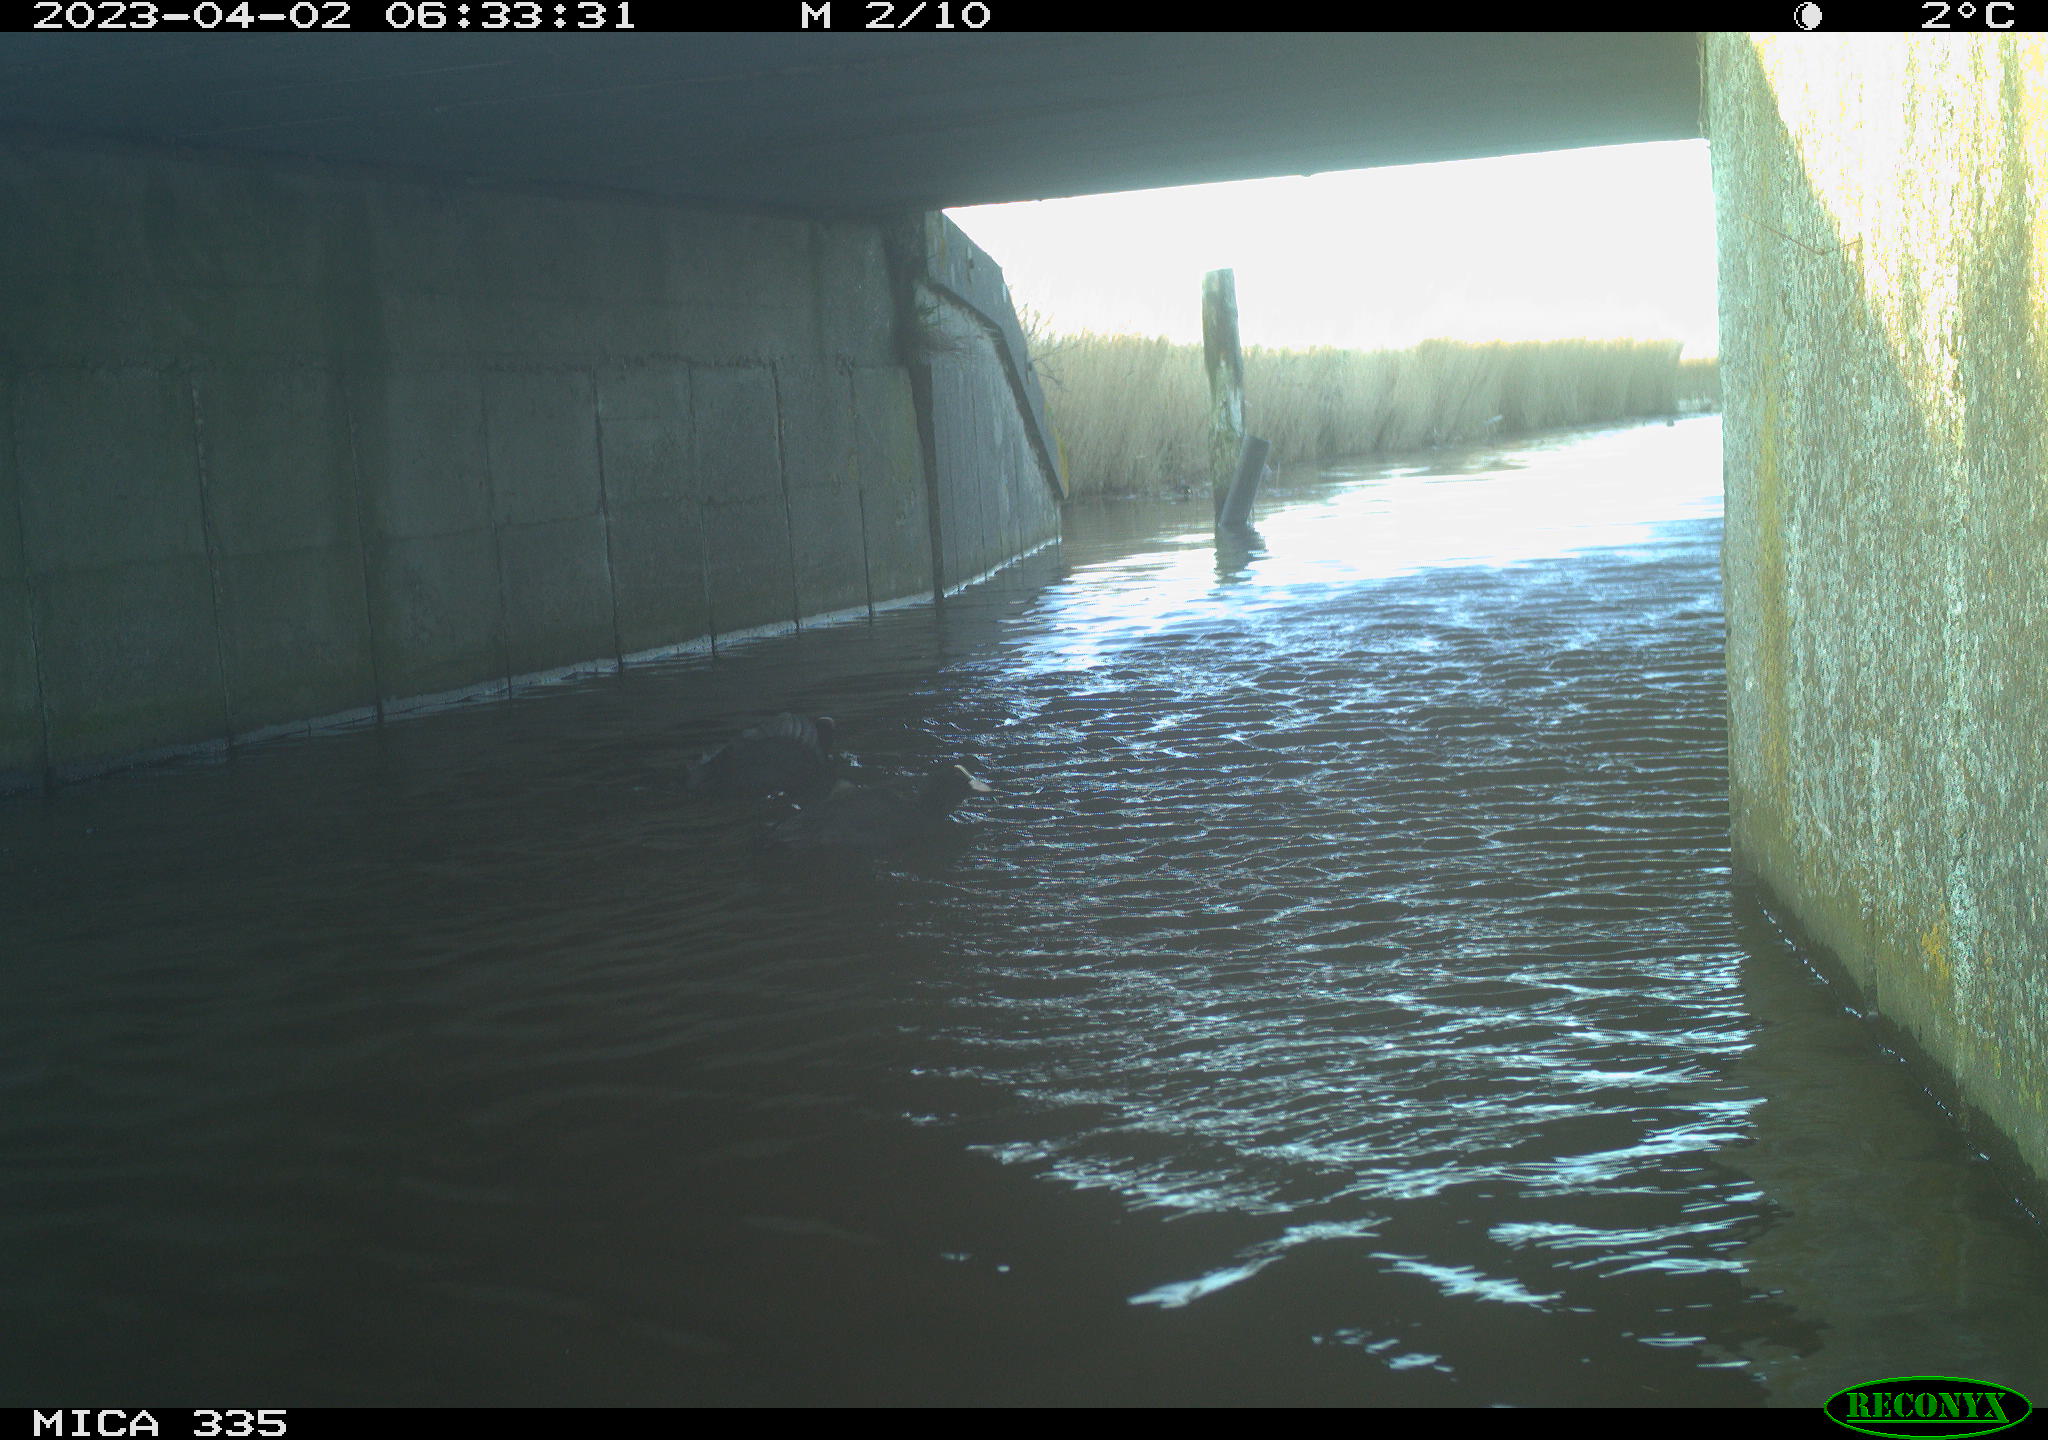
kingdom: Animalia
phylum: Chordata
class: Aves
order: Anseriformes
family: Anatidae
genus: Anas
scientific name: Anas
